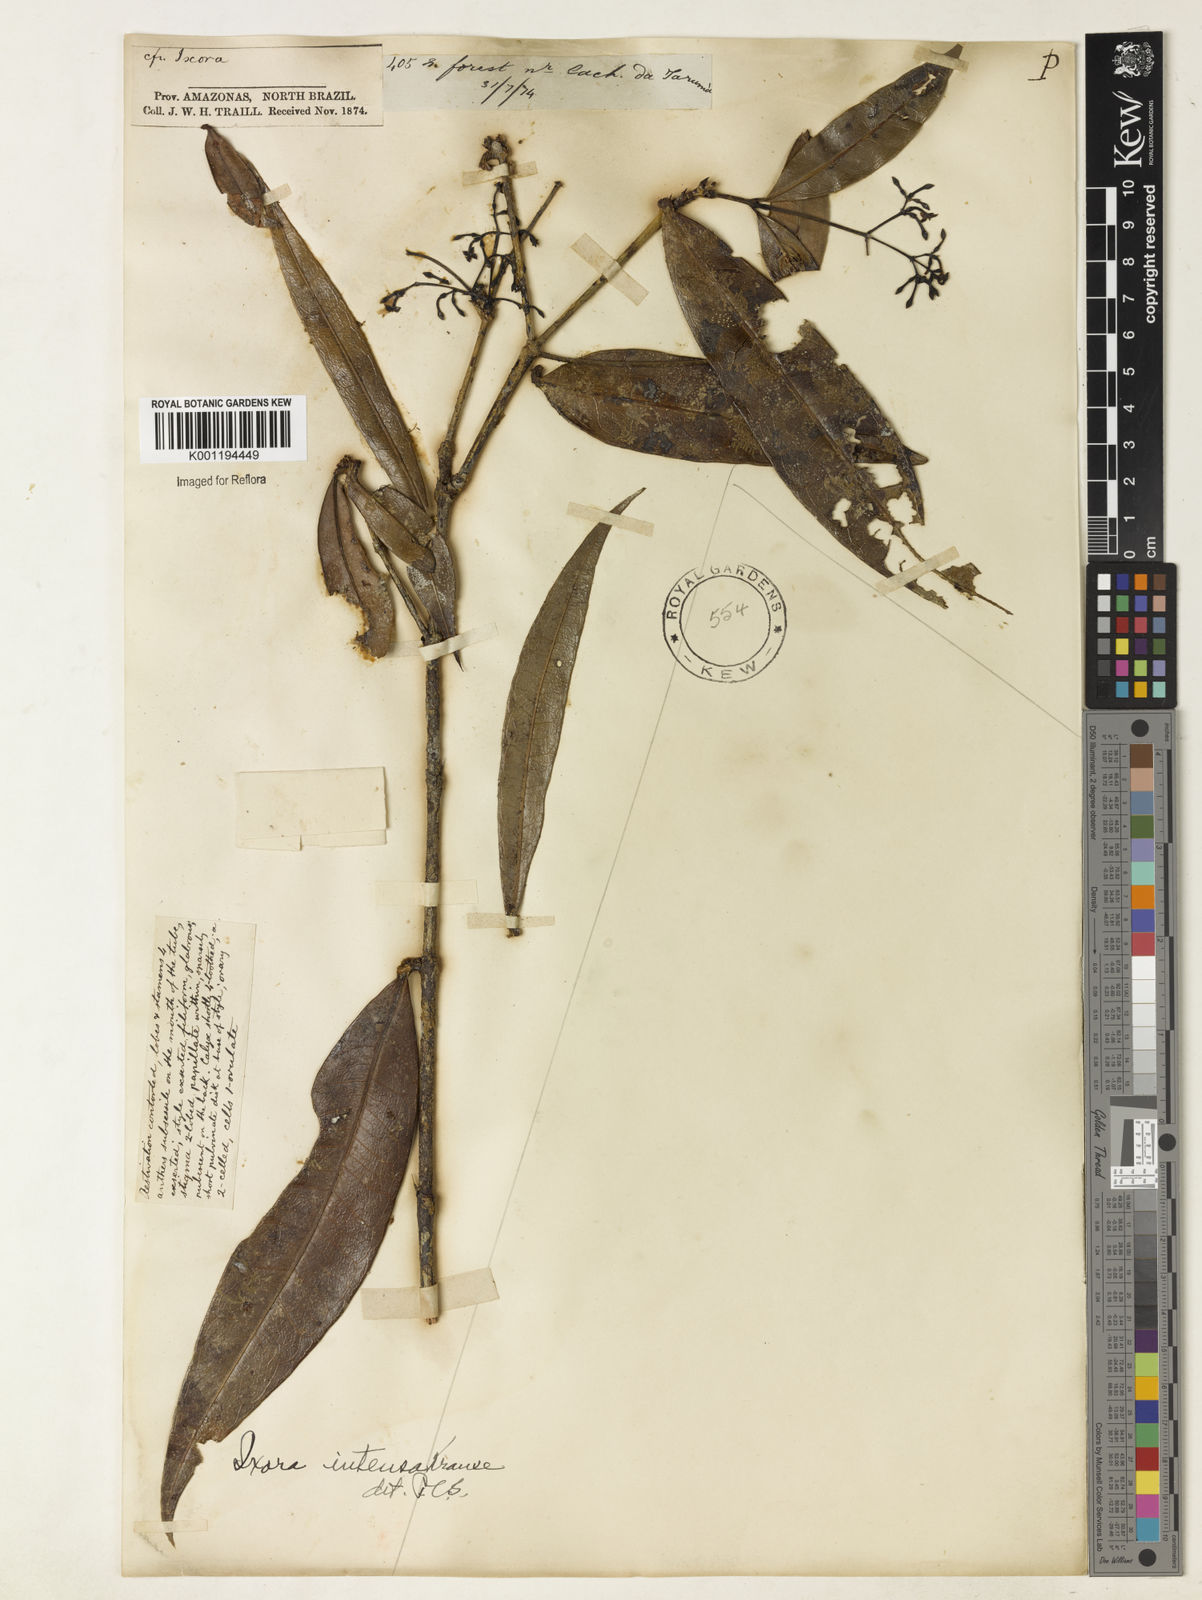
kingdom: Plantae
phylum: Tracheophyta
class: Magnoliopsida
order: Gentianales
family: Rubiaceae
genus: Ixora
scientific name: Ixora intensa
